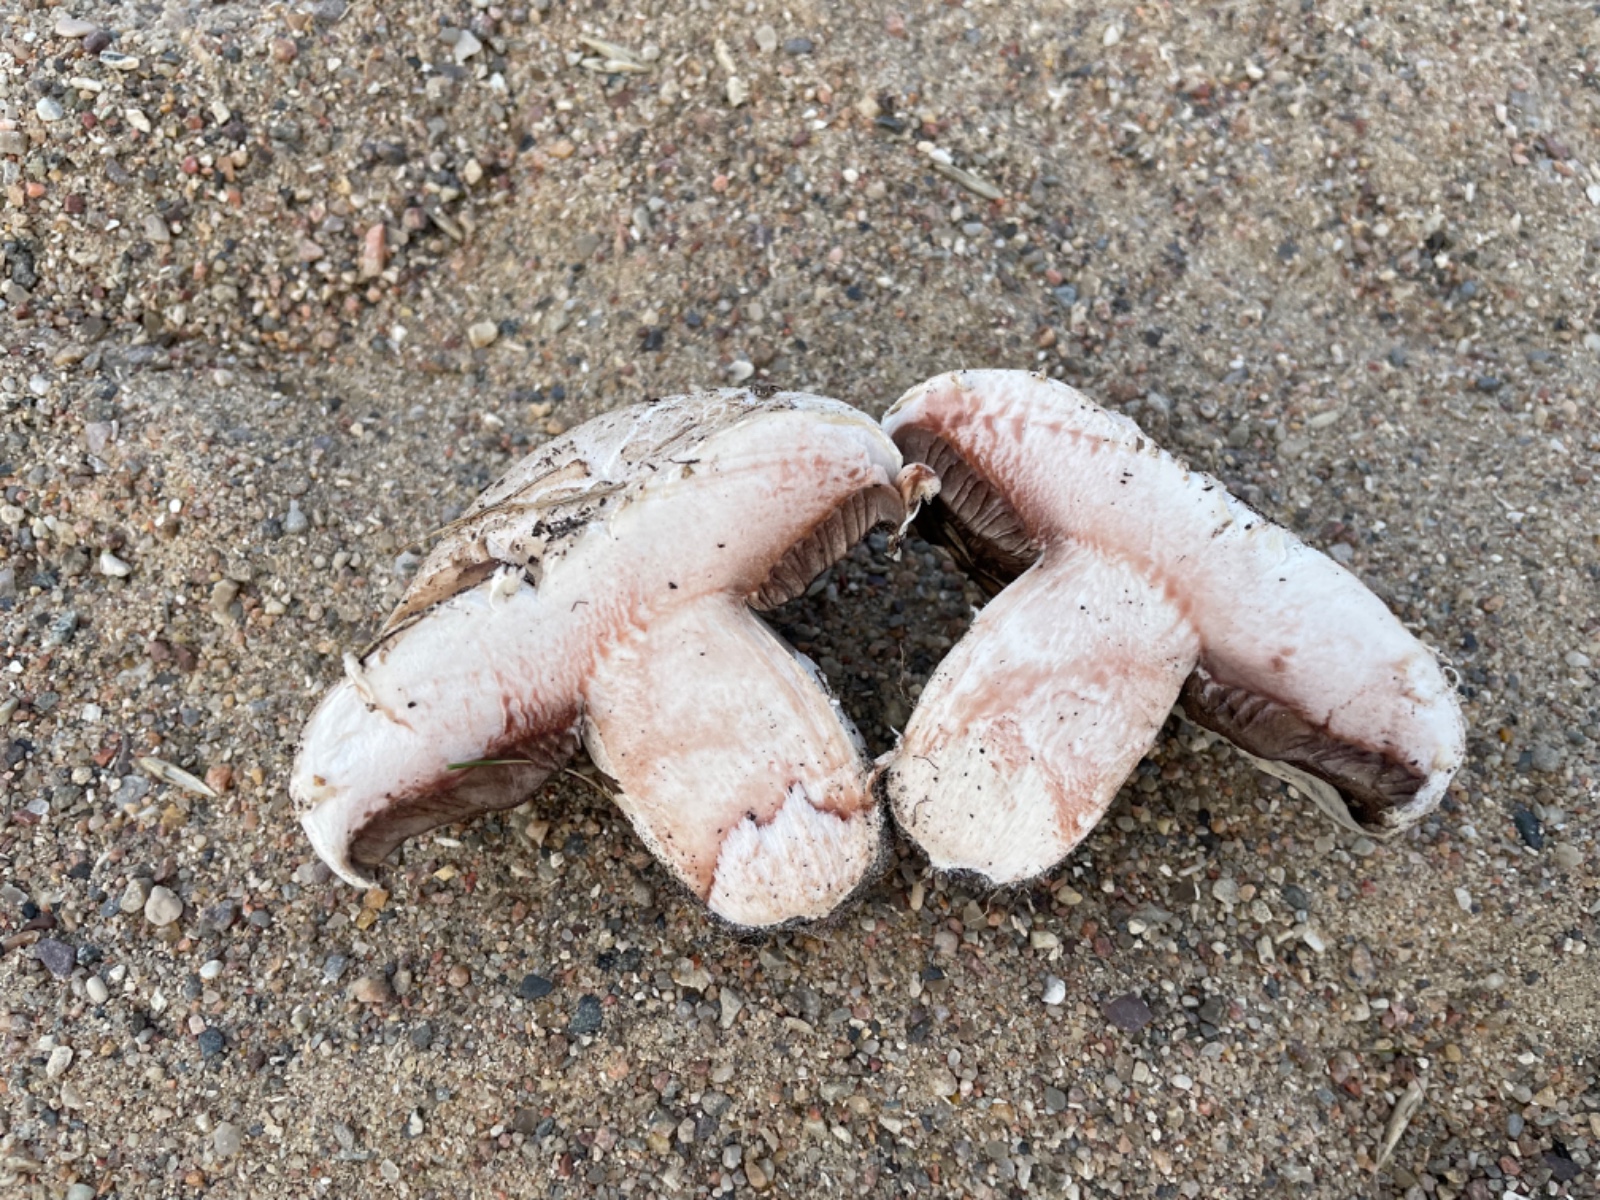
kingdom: Fungi
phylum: Basidiomycota
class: Agaricomycetes
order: Agaricales
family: Agaricaceae
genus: Agaricus
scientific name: Agaricus bernardii
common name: strandengs-champignon
